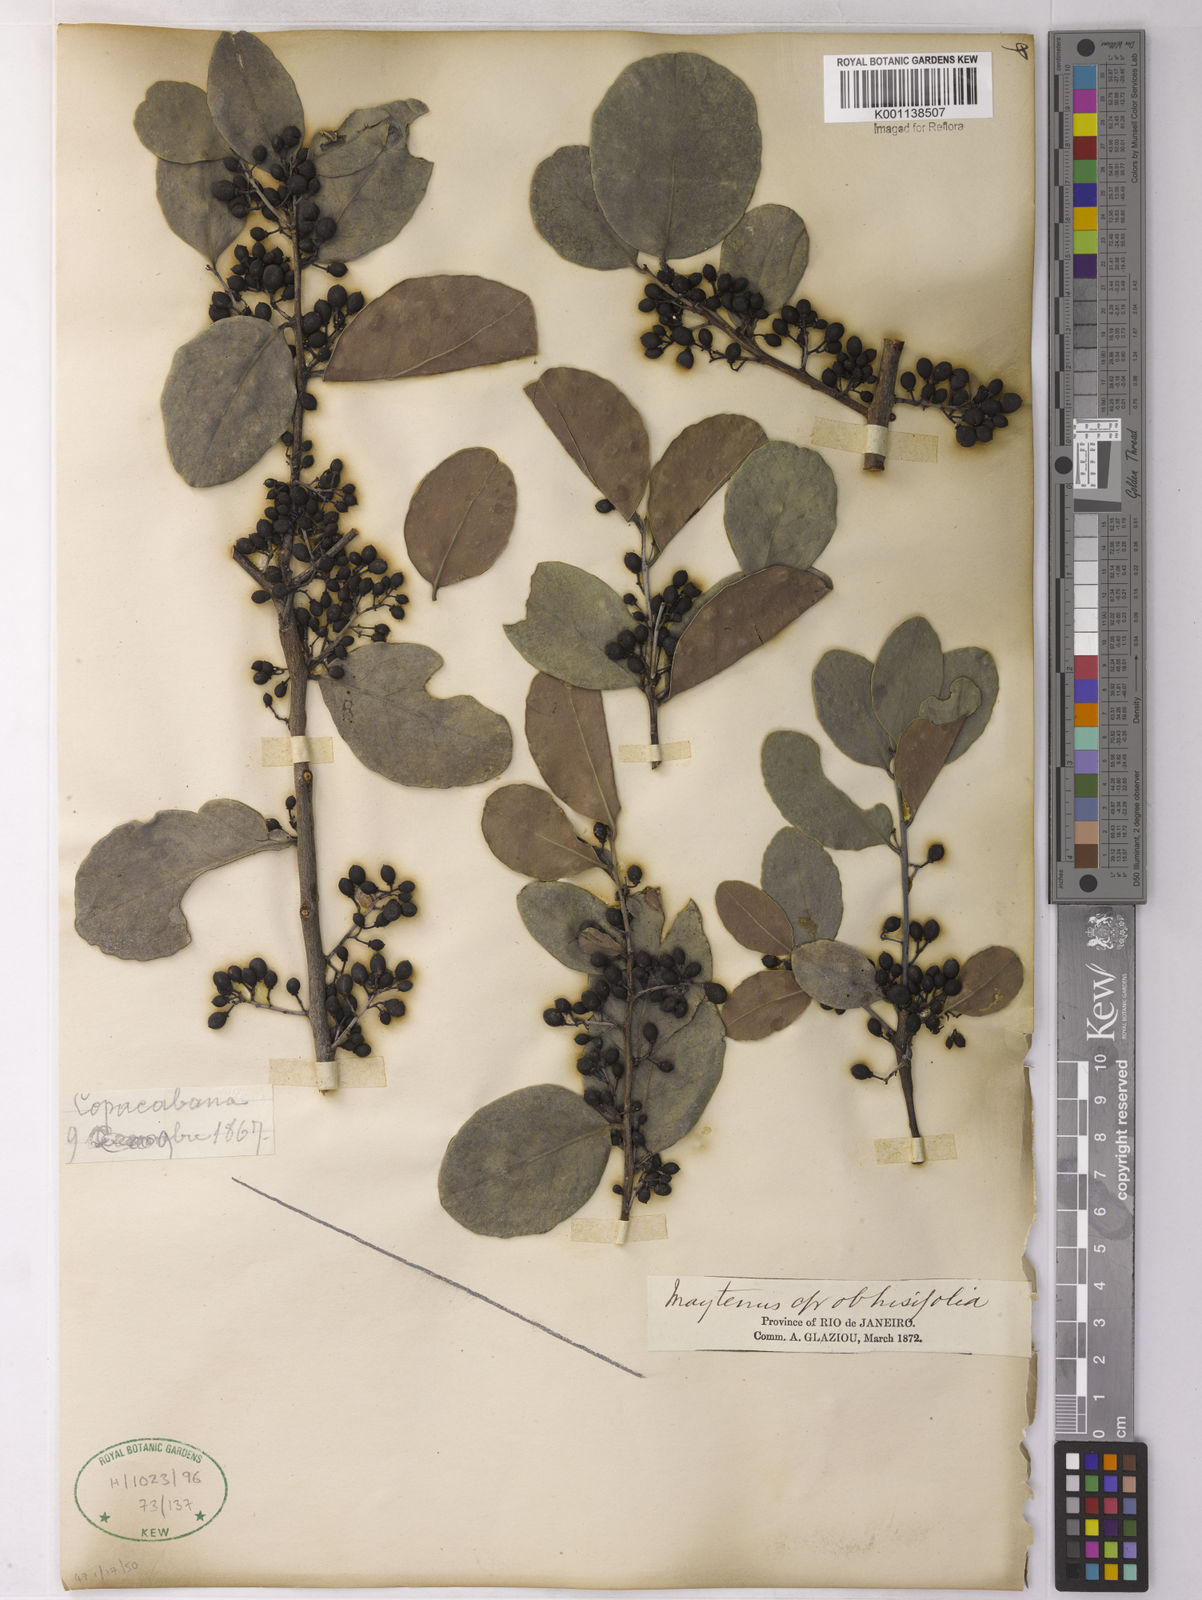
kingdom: Plantae
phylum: Tracheophyta
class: Magnoliopsida
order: Celastrales
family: Celastraceae
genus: Monteverdia
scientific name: Monteverdia obtusifolia
